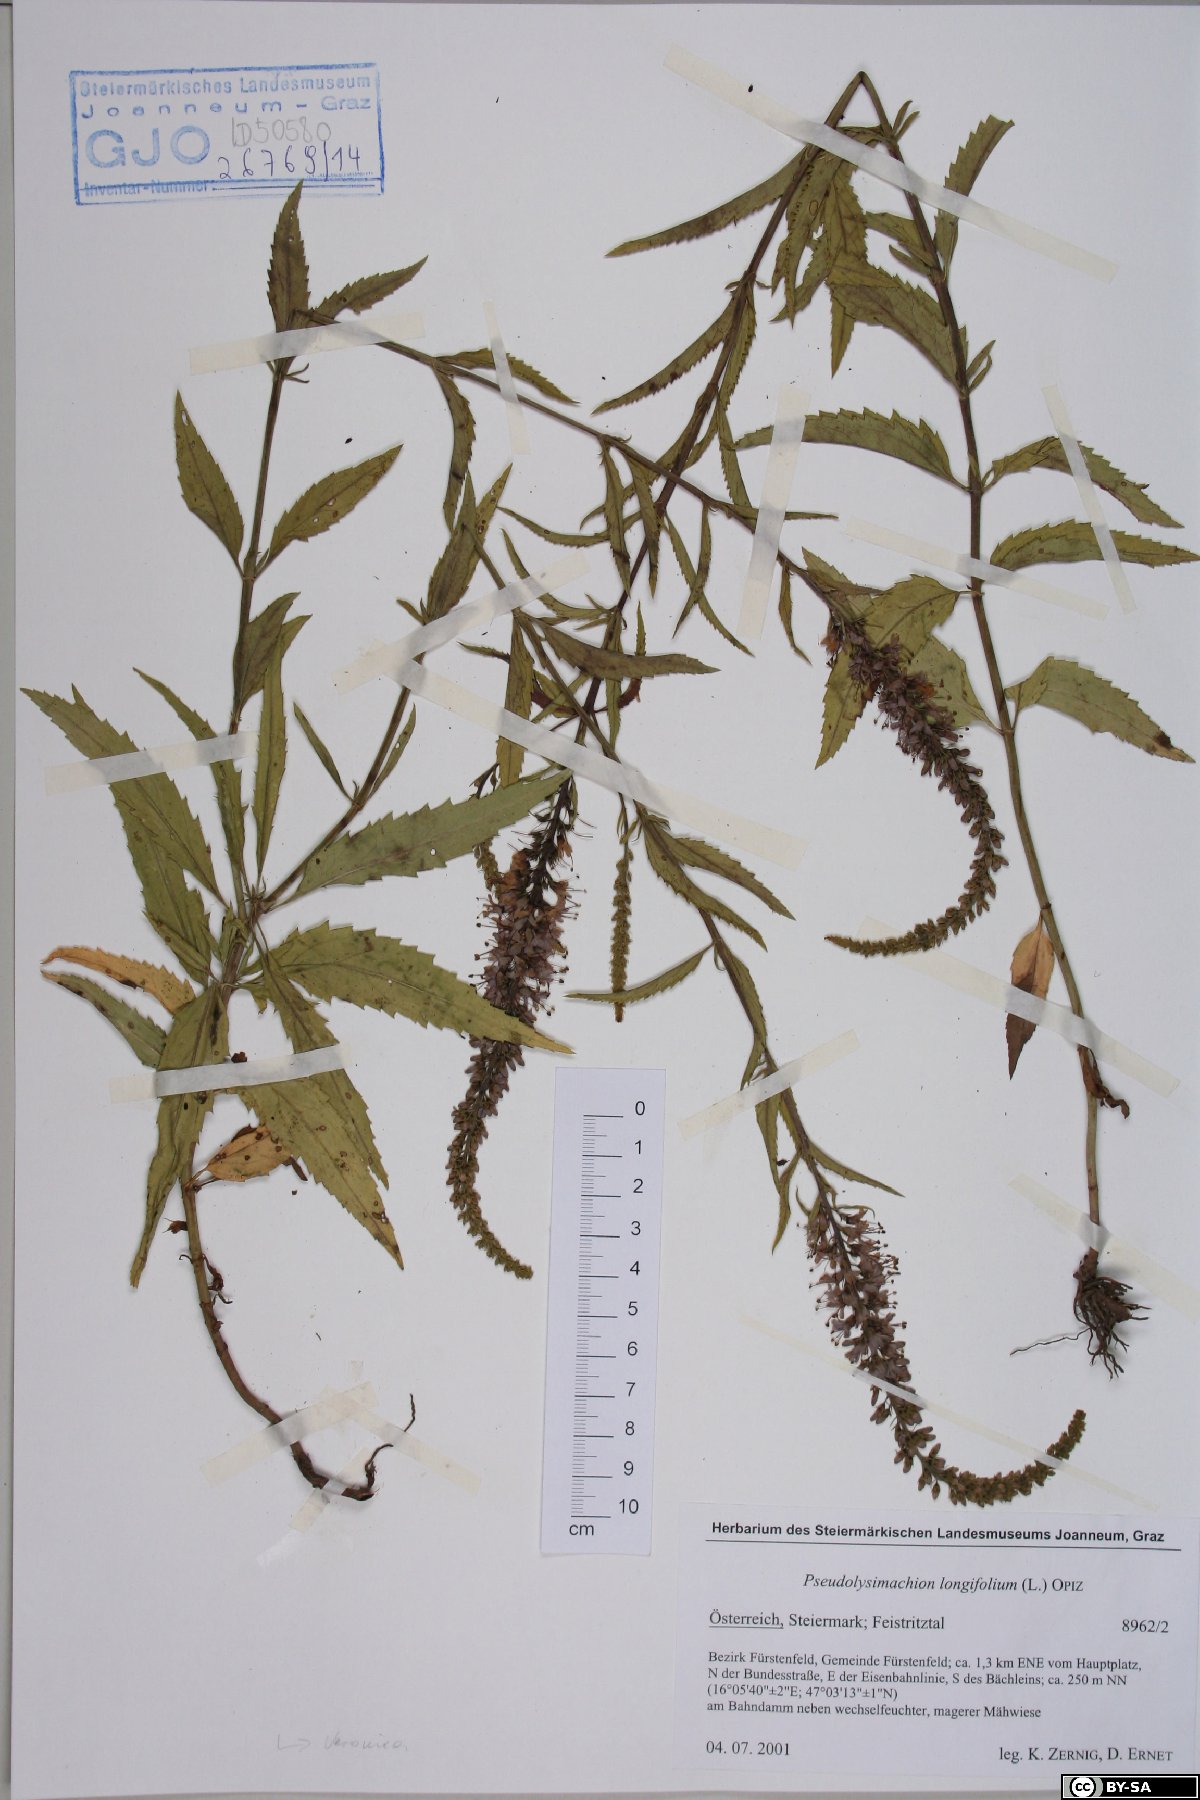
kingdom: Plantae
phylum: Tracheophyta
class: Magnoliopsida
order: Lamiales
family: Plantaginaceae
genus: Veronica
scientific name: Veronica longifolia
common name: Garden speedwell
